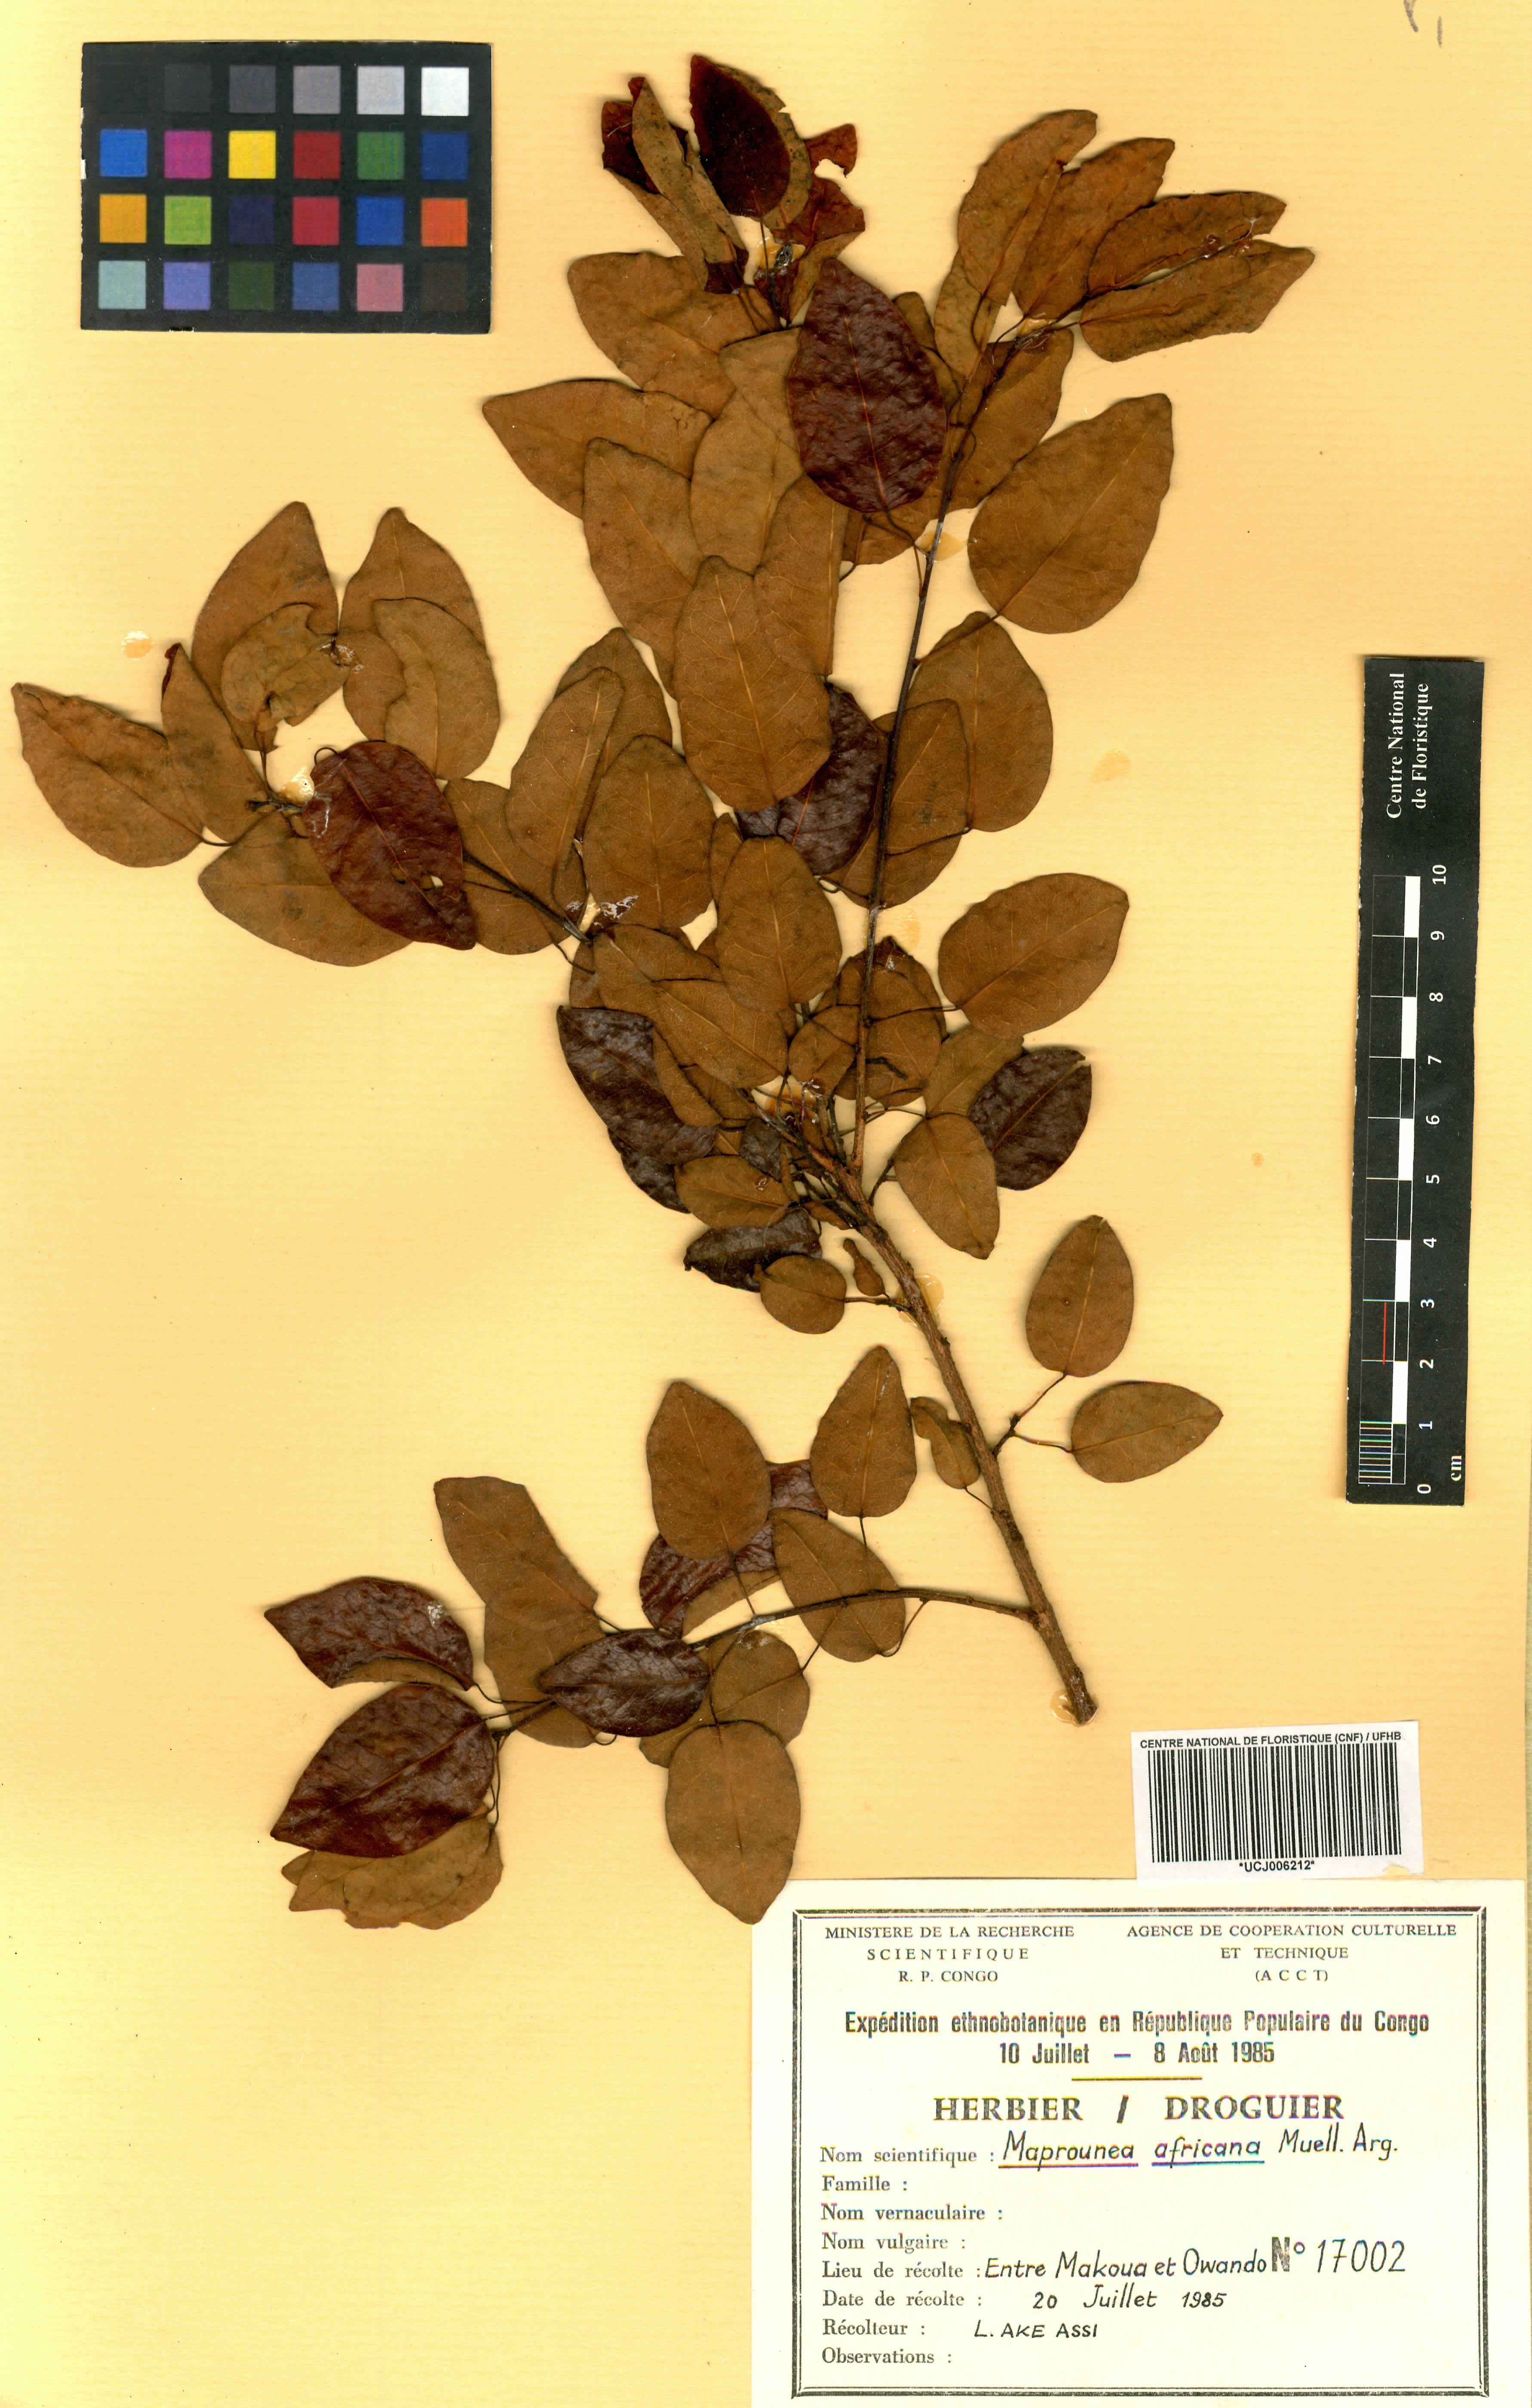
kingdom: Plantae
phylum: Tracheophyta
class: Magnoliopsida
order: Malpighiales
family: Euphorbiaceae
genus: Maprounea
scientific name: Maprounea africana
